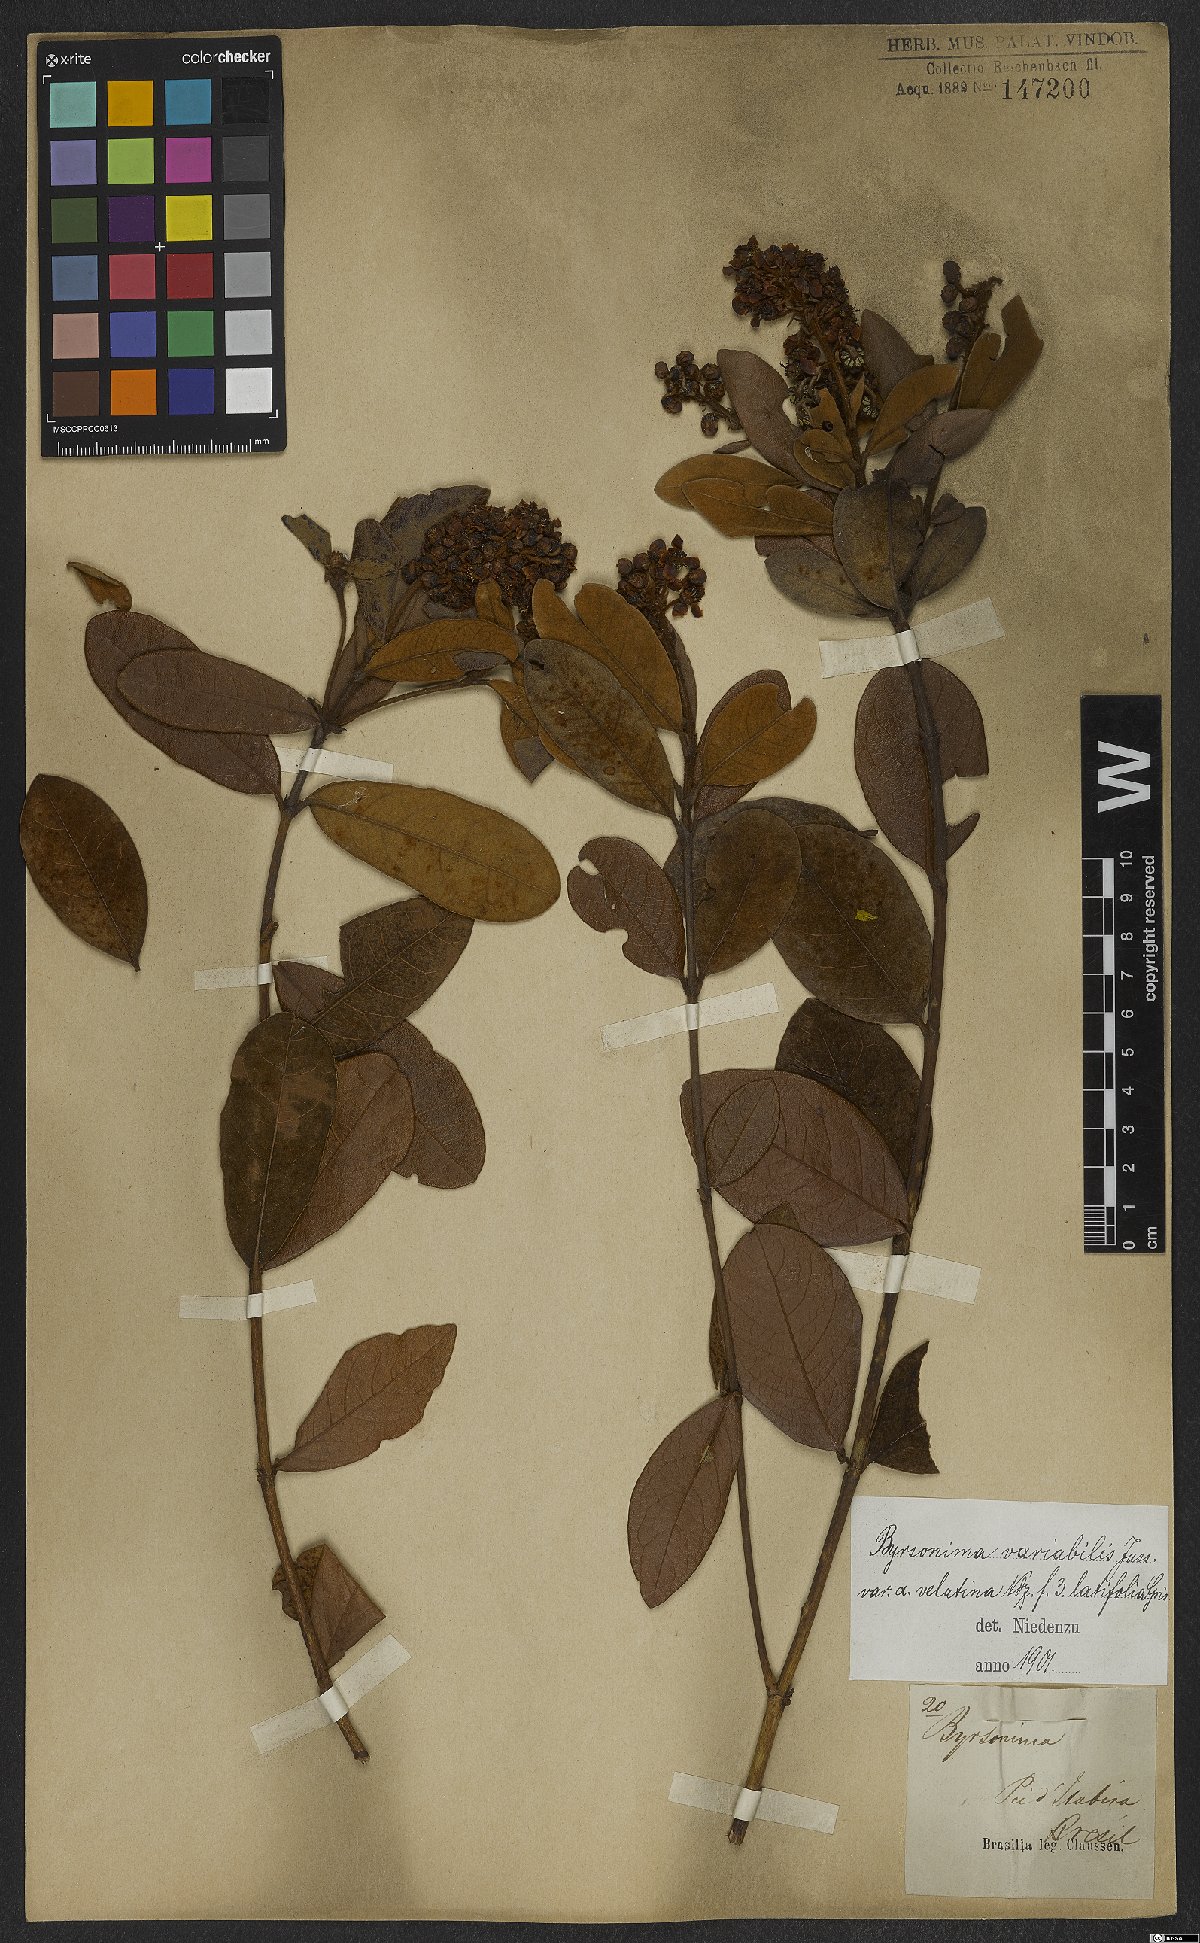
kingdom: Plantae
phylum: Tracheophyta
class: Magnoliopsida
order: Malpighiales
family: Malpighiaceae
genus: Byrsonima
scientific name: Byrsonima variabilis
